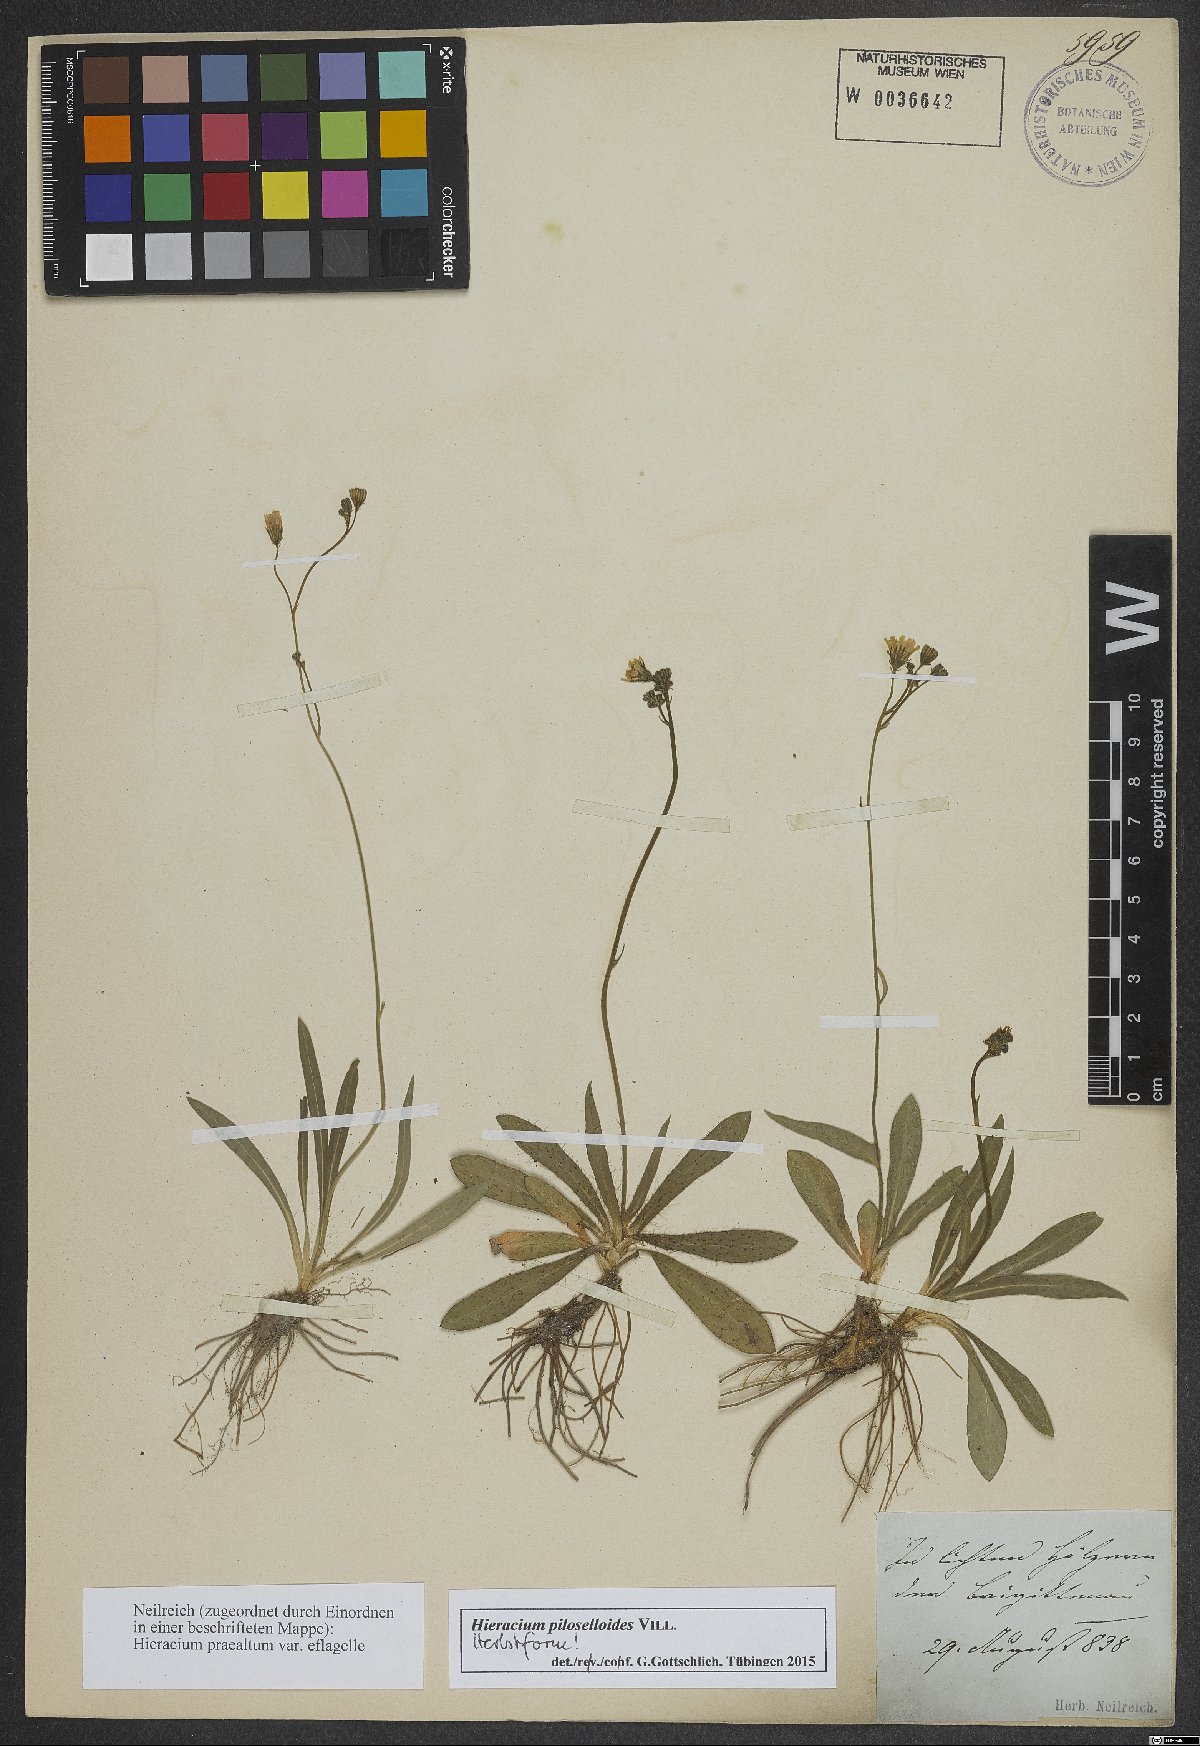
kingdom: Plantae
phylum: Tracheophyta
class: Magnoliopsida
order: Asterales
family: Asteraceae
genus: Pilosella
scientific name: Pilosella piloselloides
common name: Glaucous king-devil
